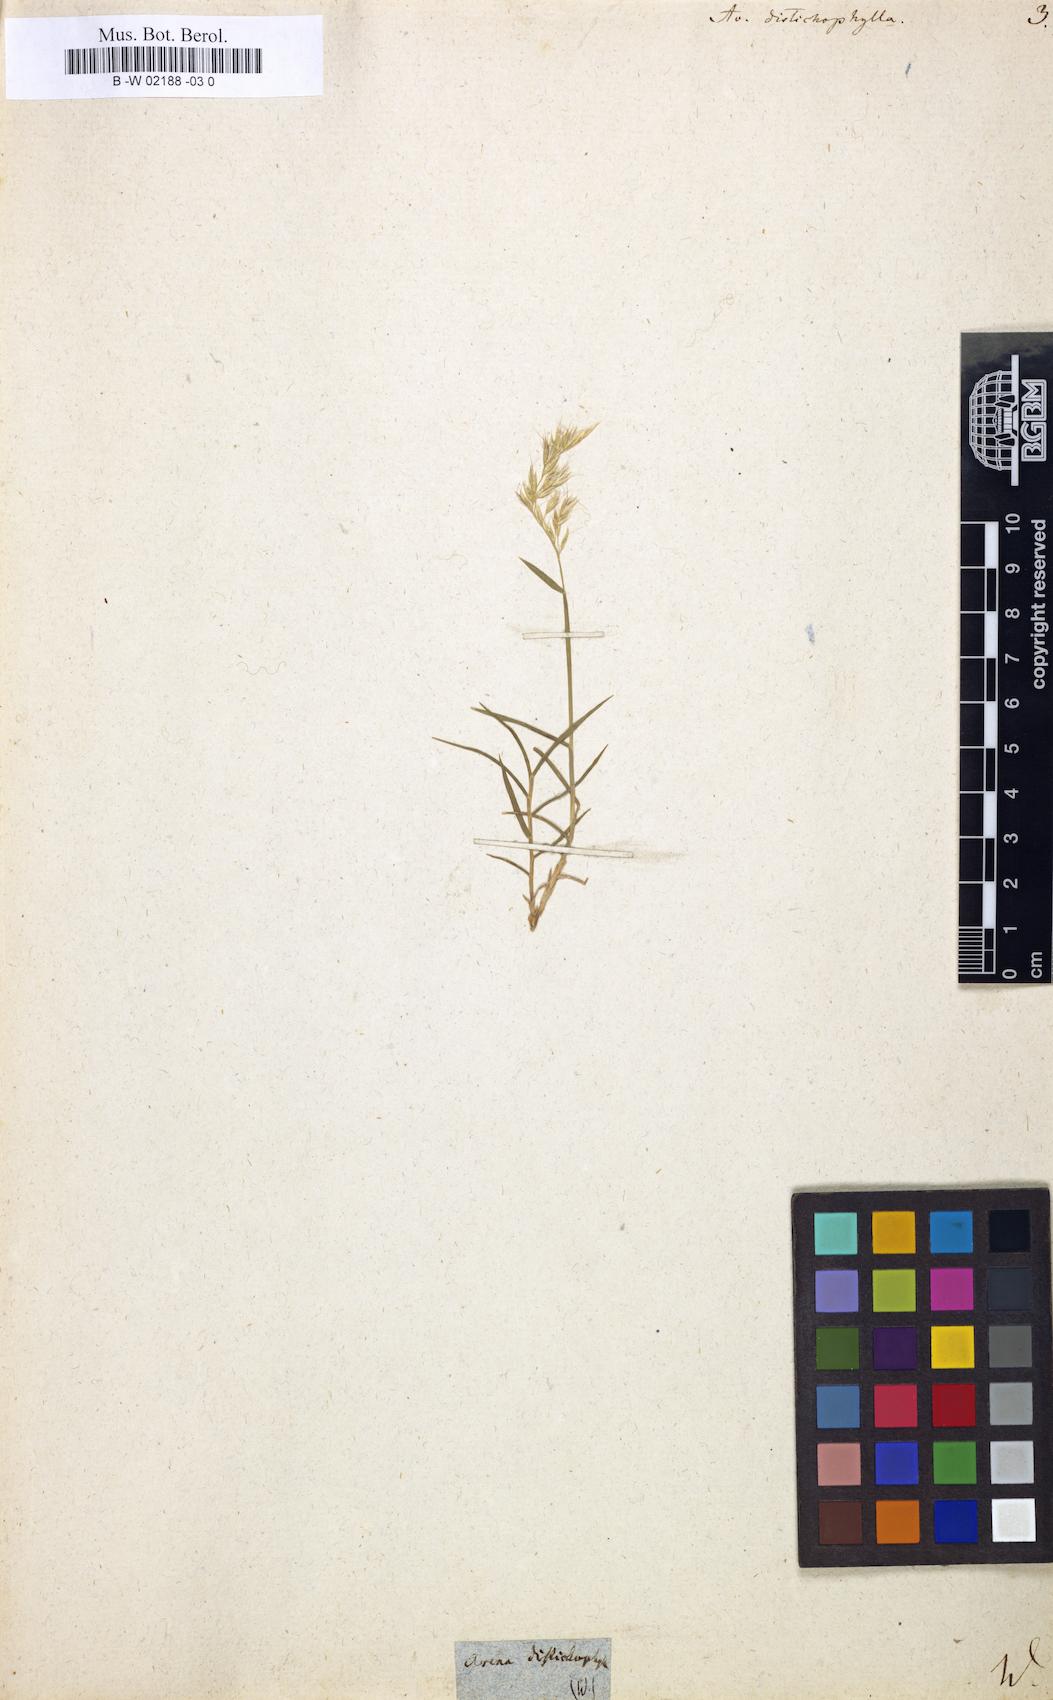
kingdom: Plantae
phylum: Tracheophyta
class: Liliopsida
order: Poales
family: Poaceae
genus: Acrospelion
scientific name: Acrospelion distichophyllum
